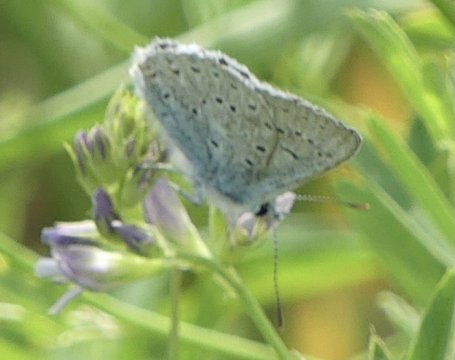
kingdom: Animalia
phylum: Arthropoda
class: Insecta
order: Lepidoptera
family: Lycaenidae
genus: Plebejus
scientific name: Plebejus saepiolus
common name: Greenish Blue
